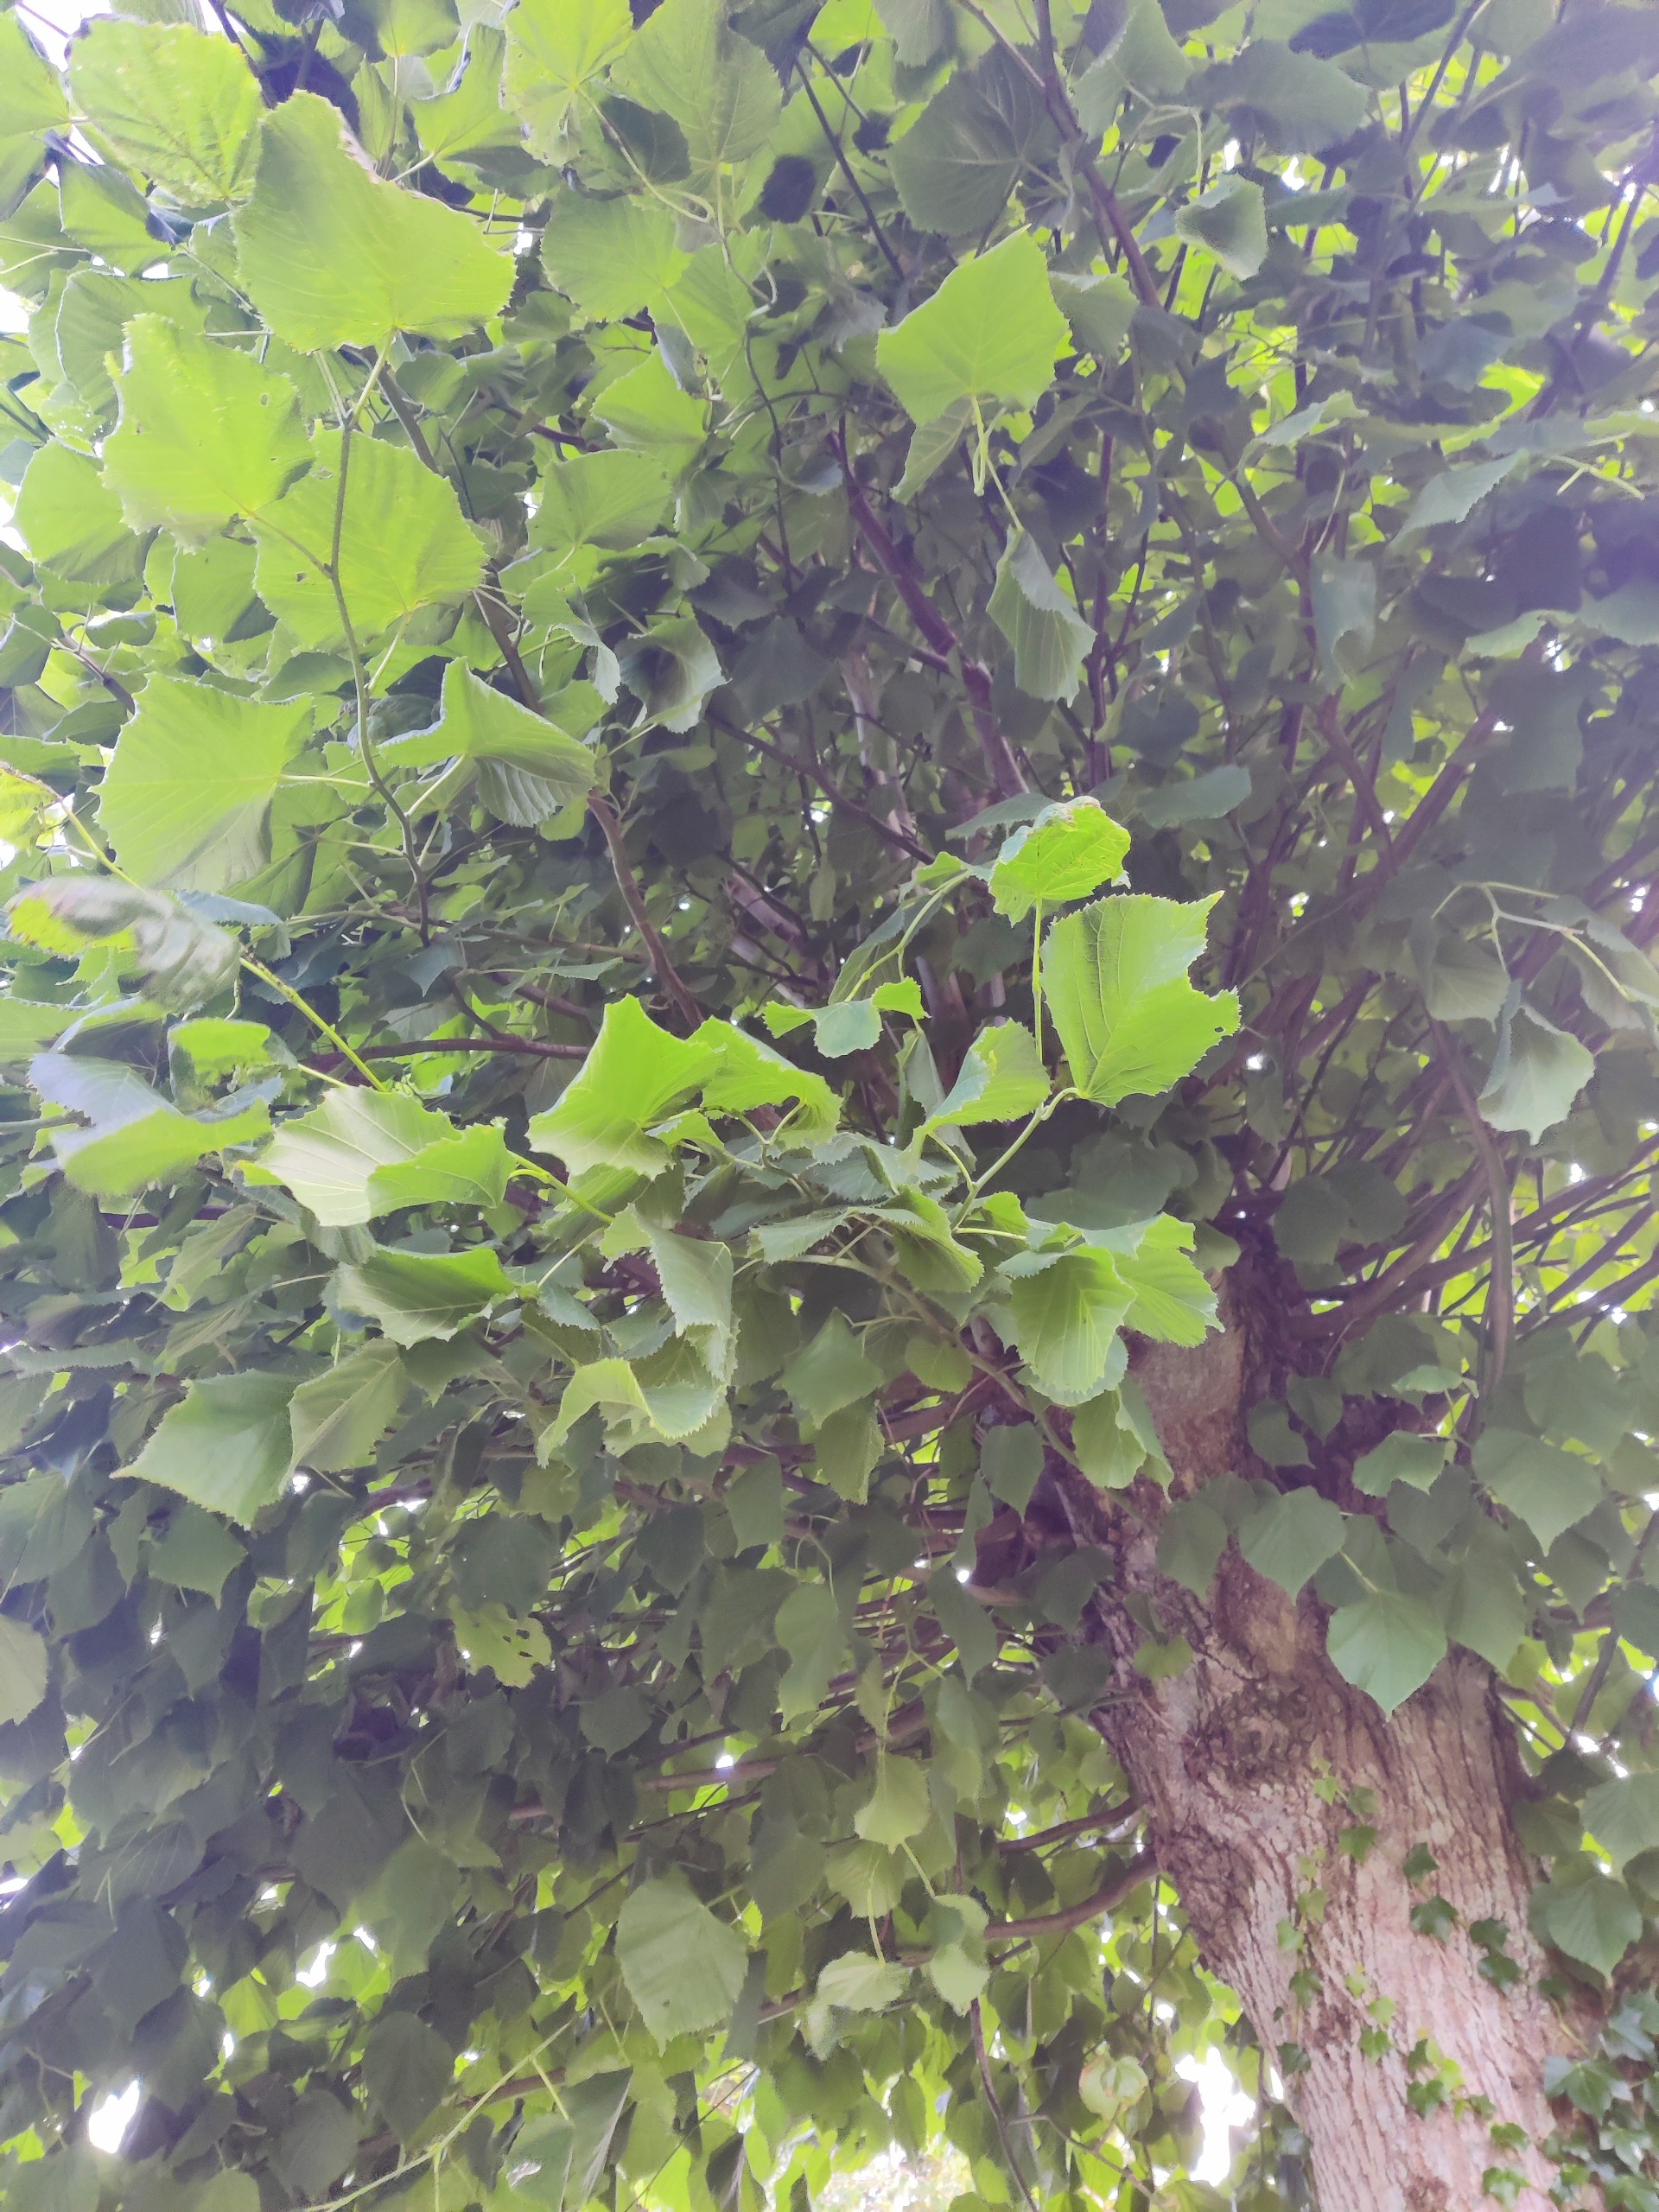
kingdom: Plantae
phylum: Tracheophyta
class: Magnoliopsida
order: Malvales
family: Malvaceae
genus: Tilia
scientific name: Tilia
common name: Lindeslægten
